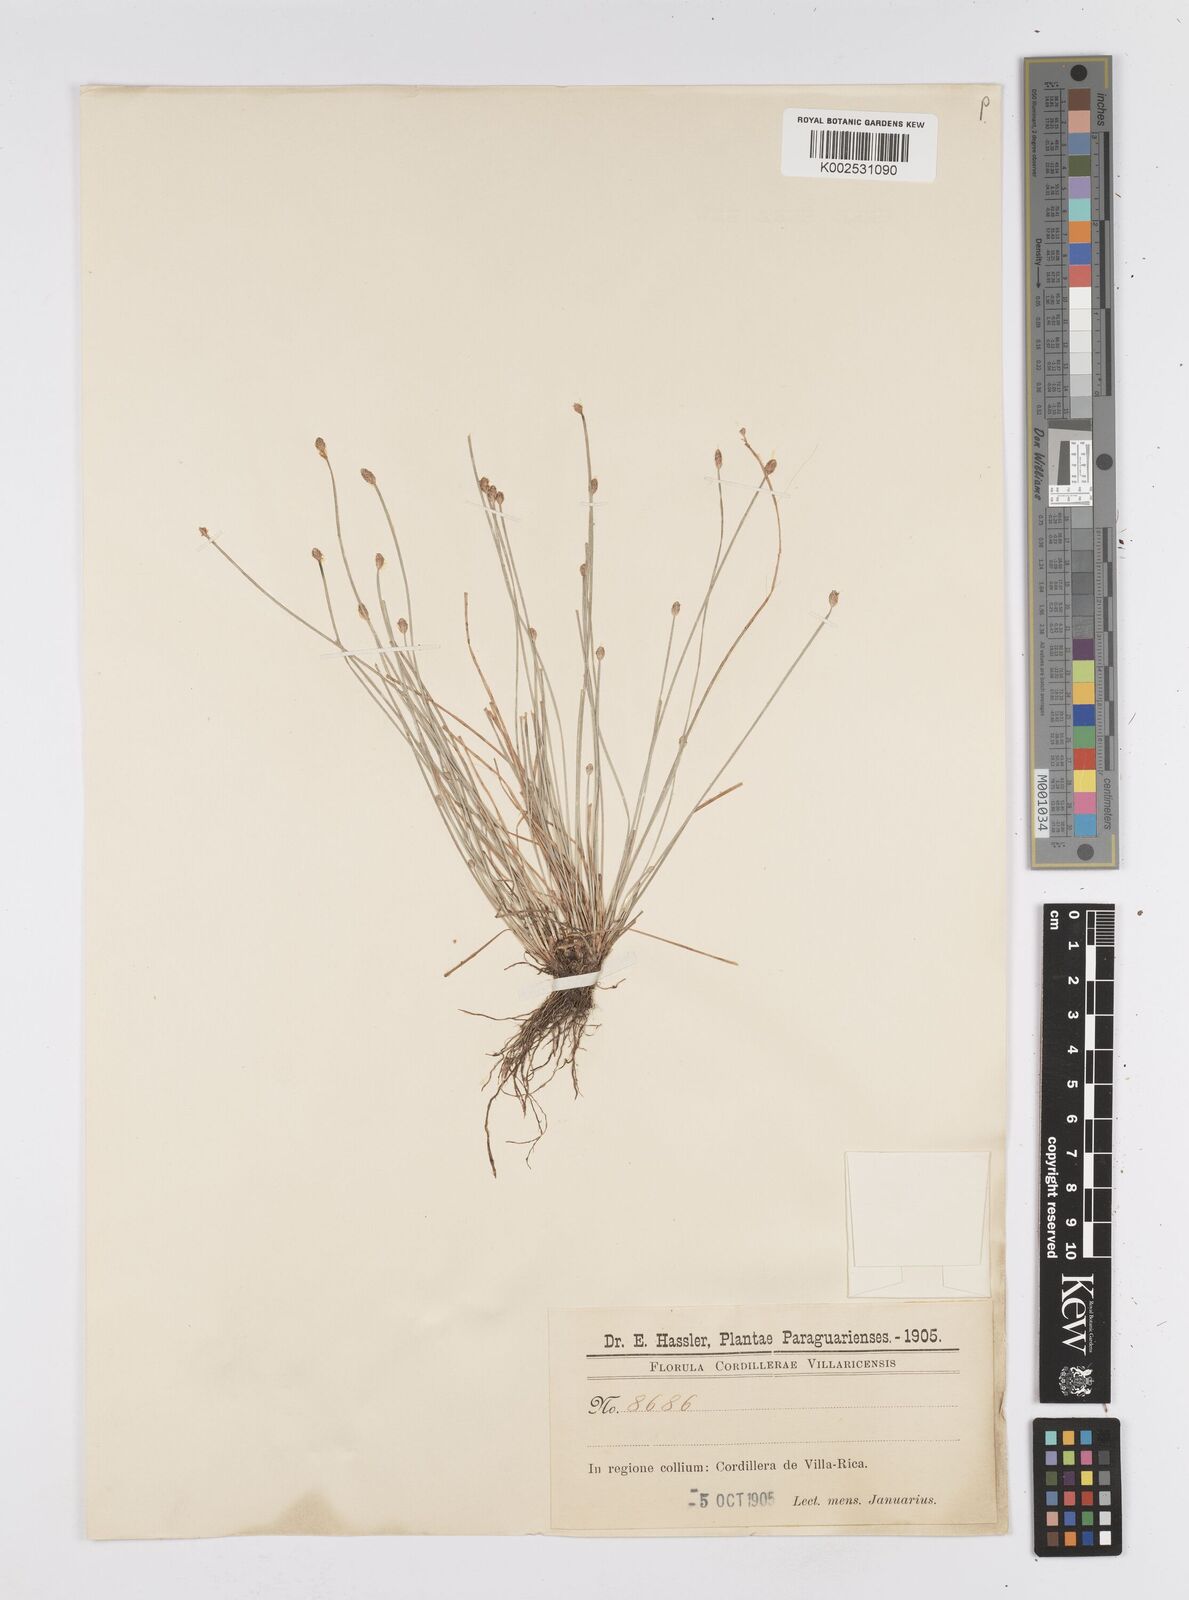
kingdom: Plantae
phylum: Tracheophyta
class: Liliopsida
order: Poales
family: Cyperaceae
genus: Eleocharis
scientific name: Eleocharis
